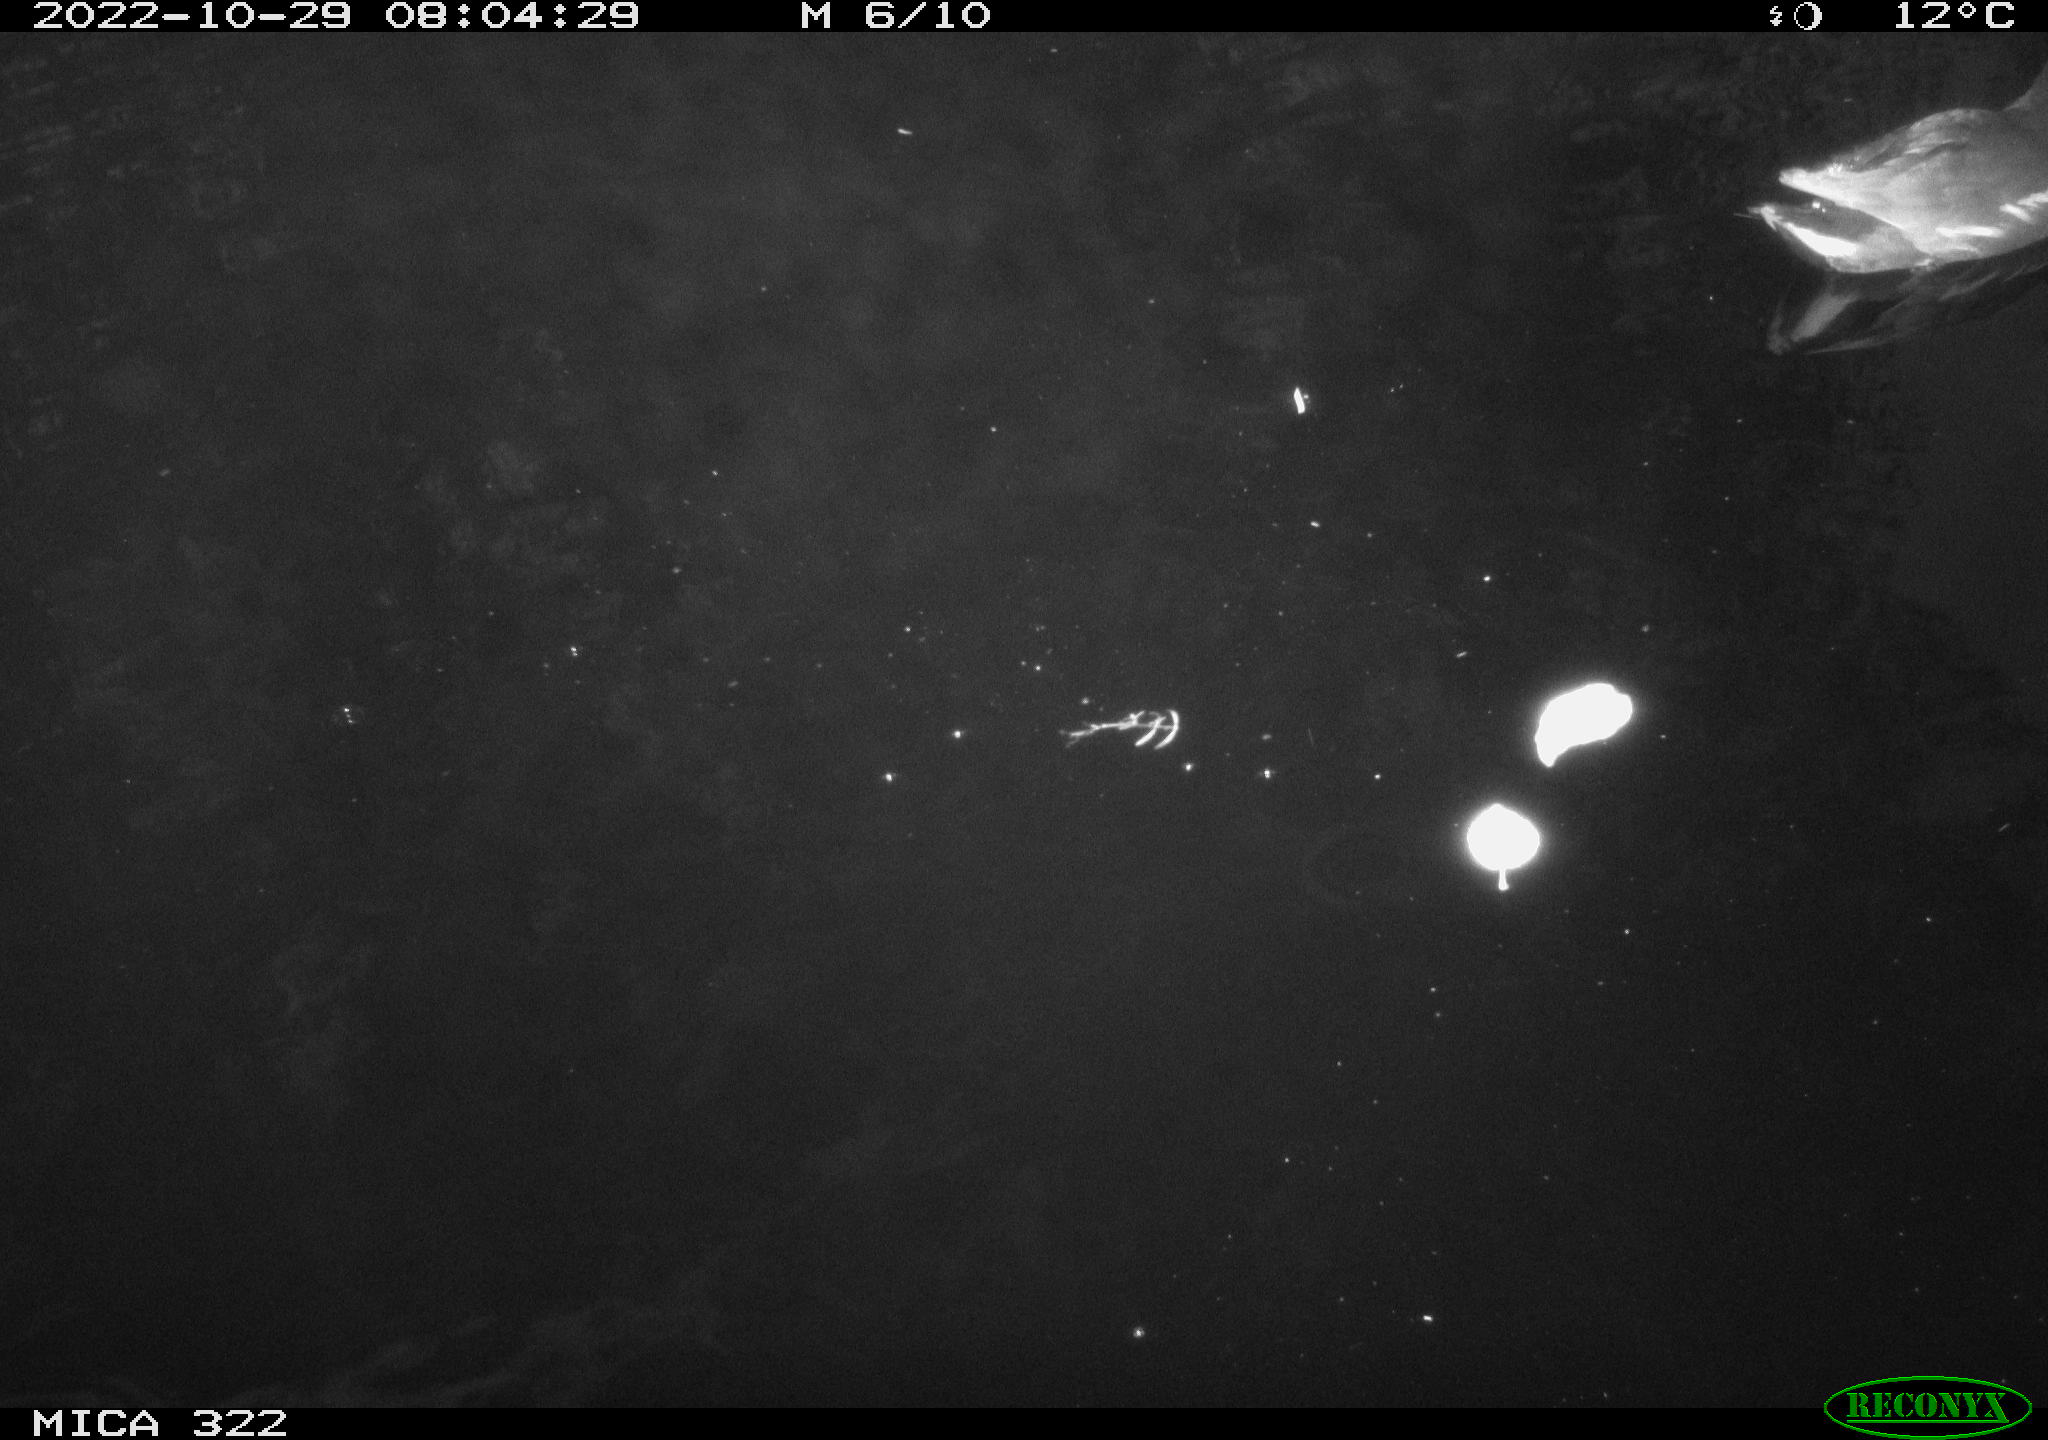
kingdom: Animalia
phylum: Chordata
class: Aves
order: Gruiformes
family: Rallidae
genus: Gallinula
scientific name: Gallinula chloropus
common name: Common moorhen
